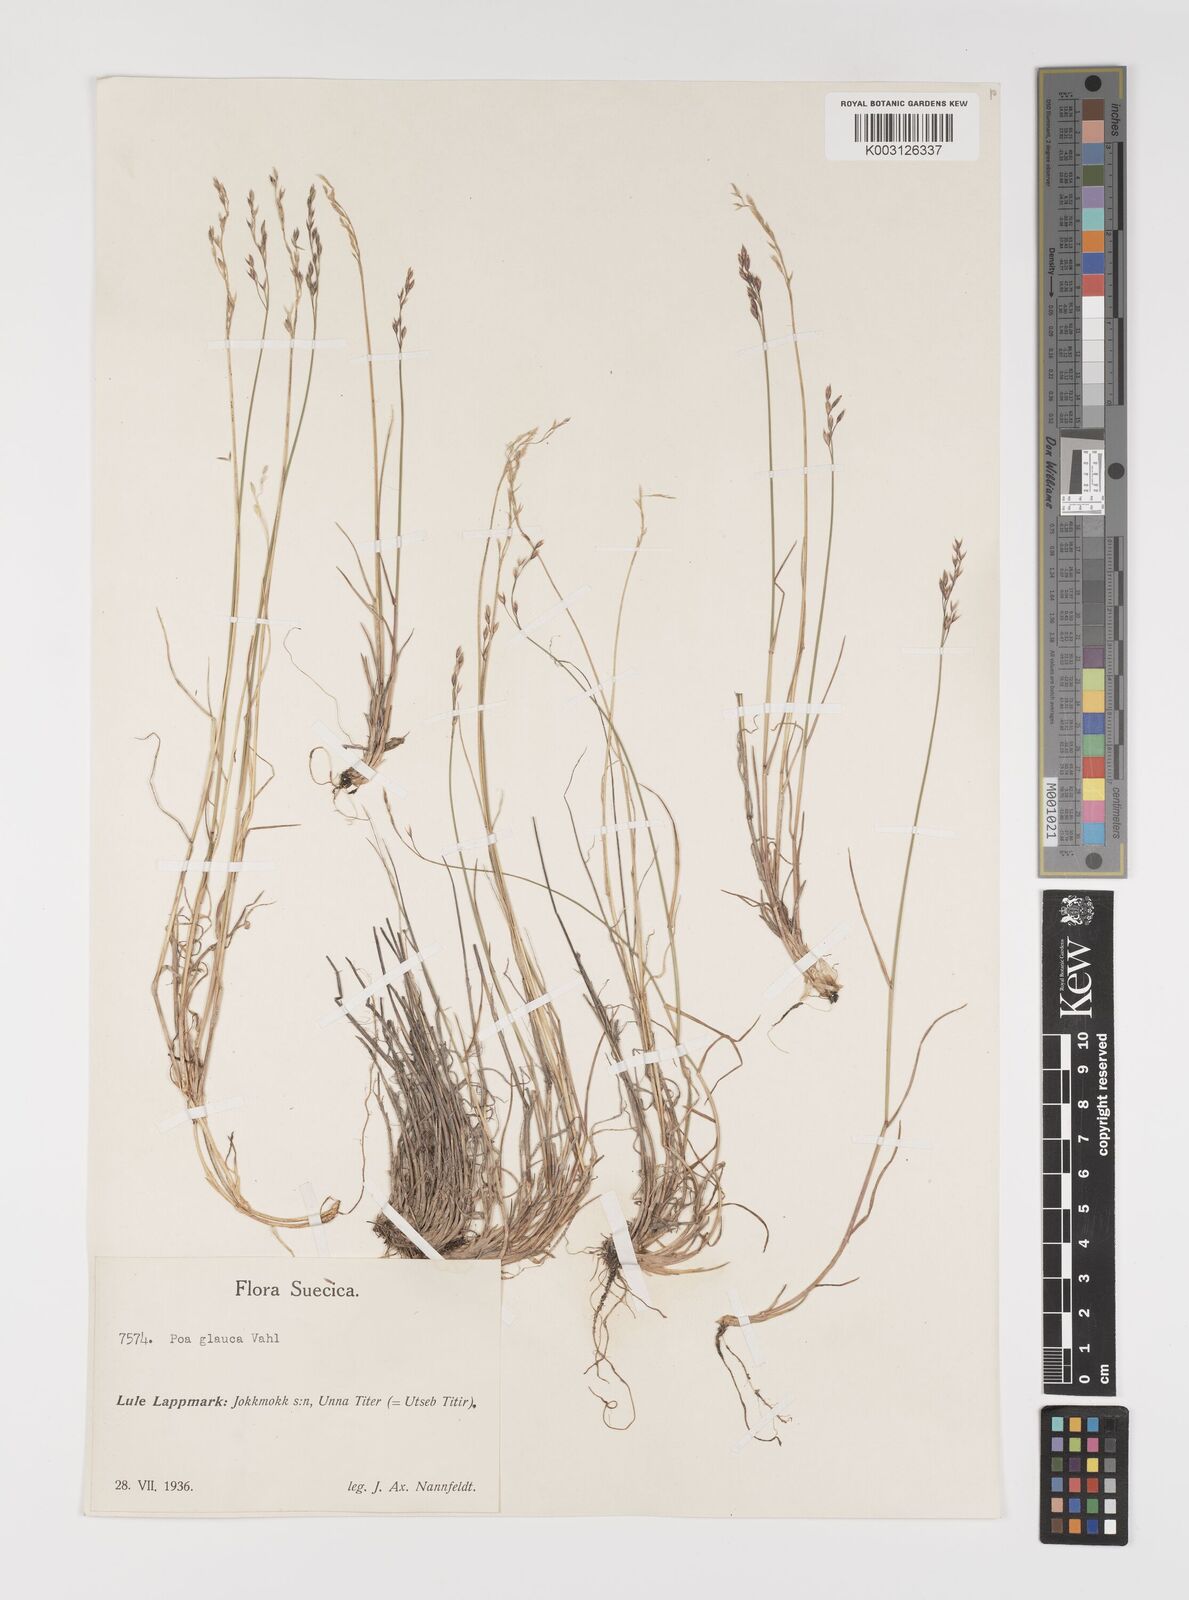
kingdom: Plantae
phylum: Tracheophyta
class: Liliopsida
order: Poales
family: Poaceae
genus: Poa
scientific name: Poa glauca
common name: Glaucous bluegrass
